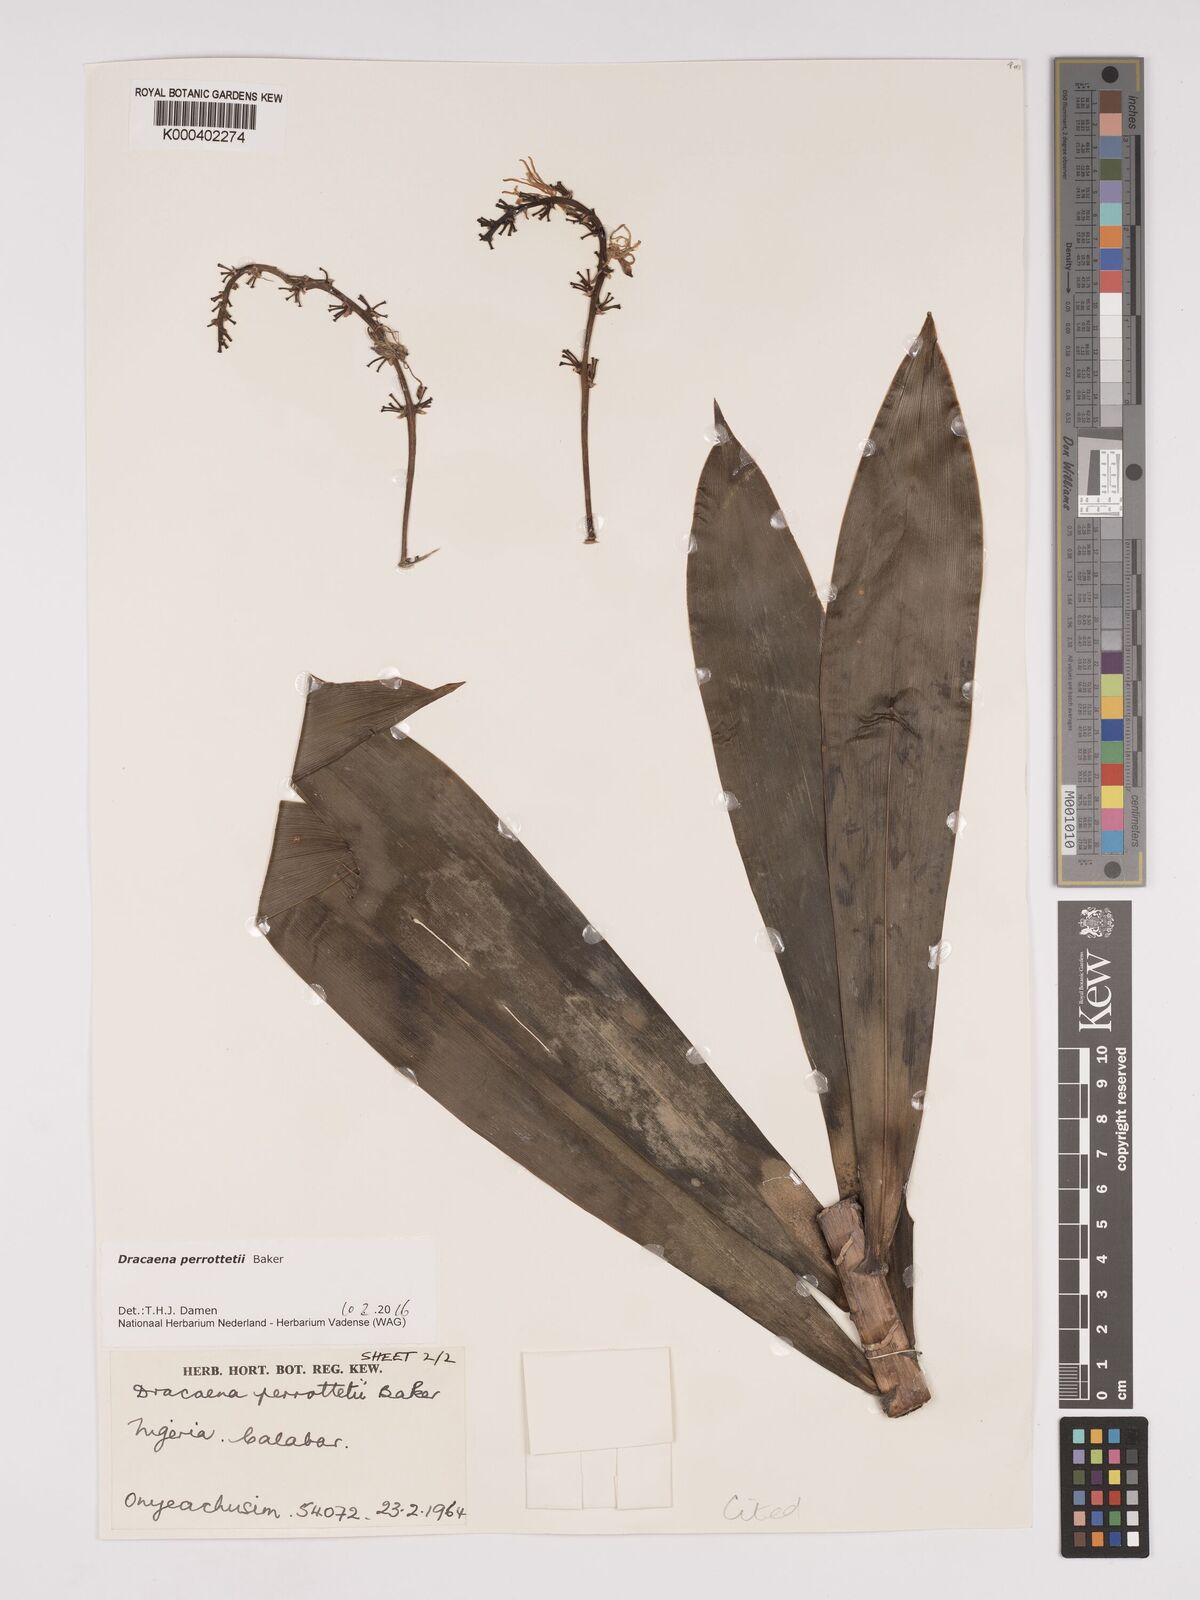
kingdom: Plantae
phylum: Tracheophyta
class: Liliopsida
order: Asparagales
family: Asparagaceae
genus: Dracaena
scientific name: Dracaena perrottetii
